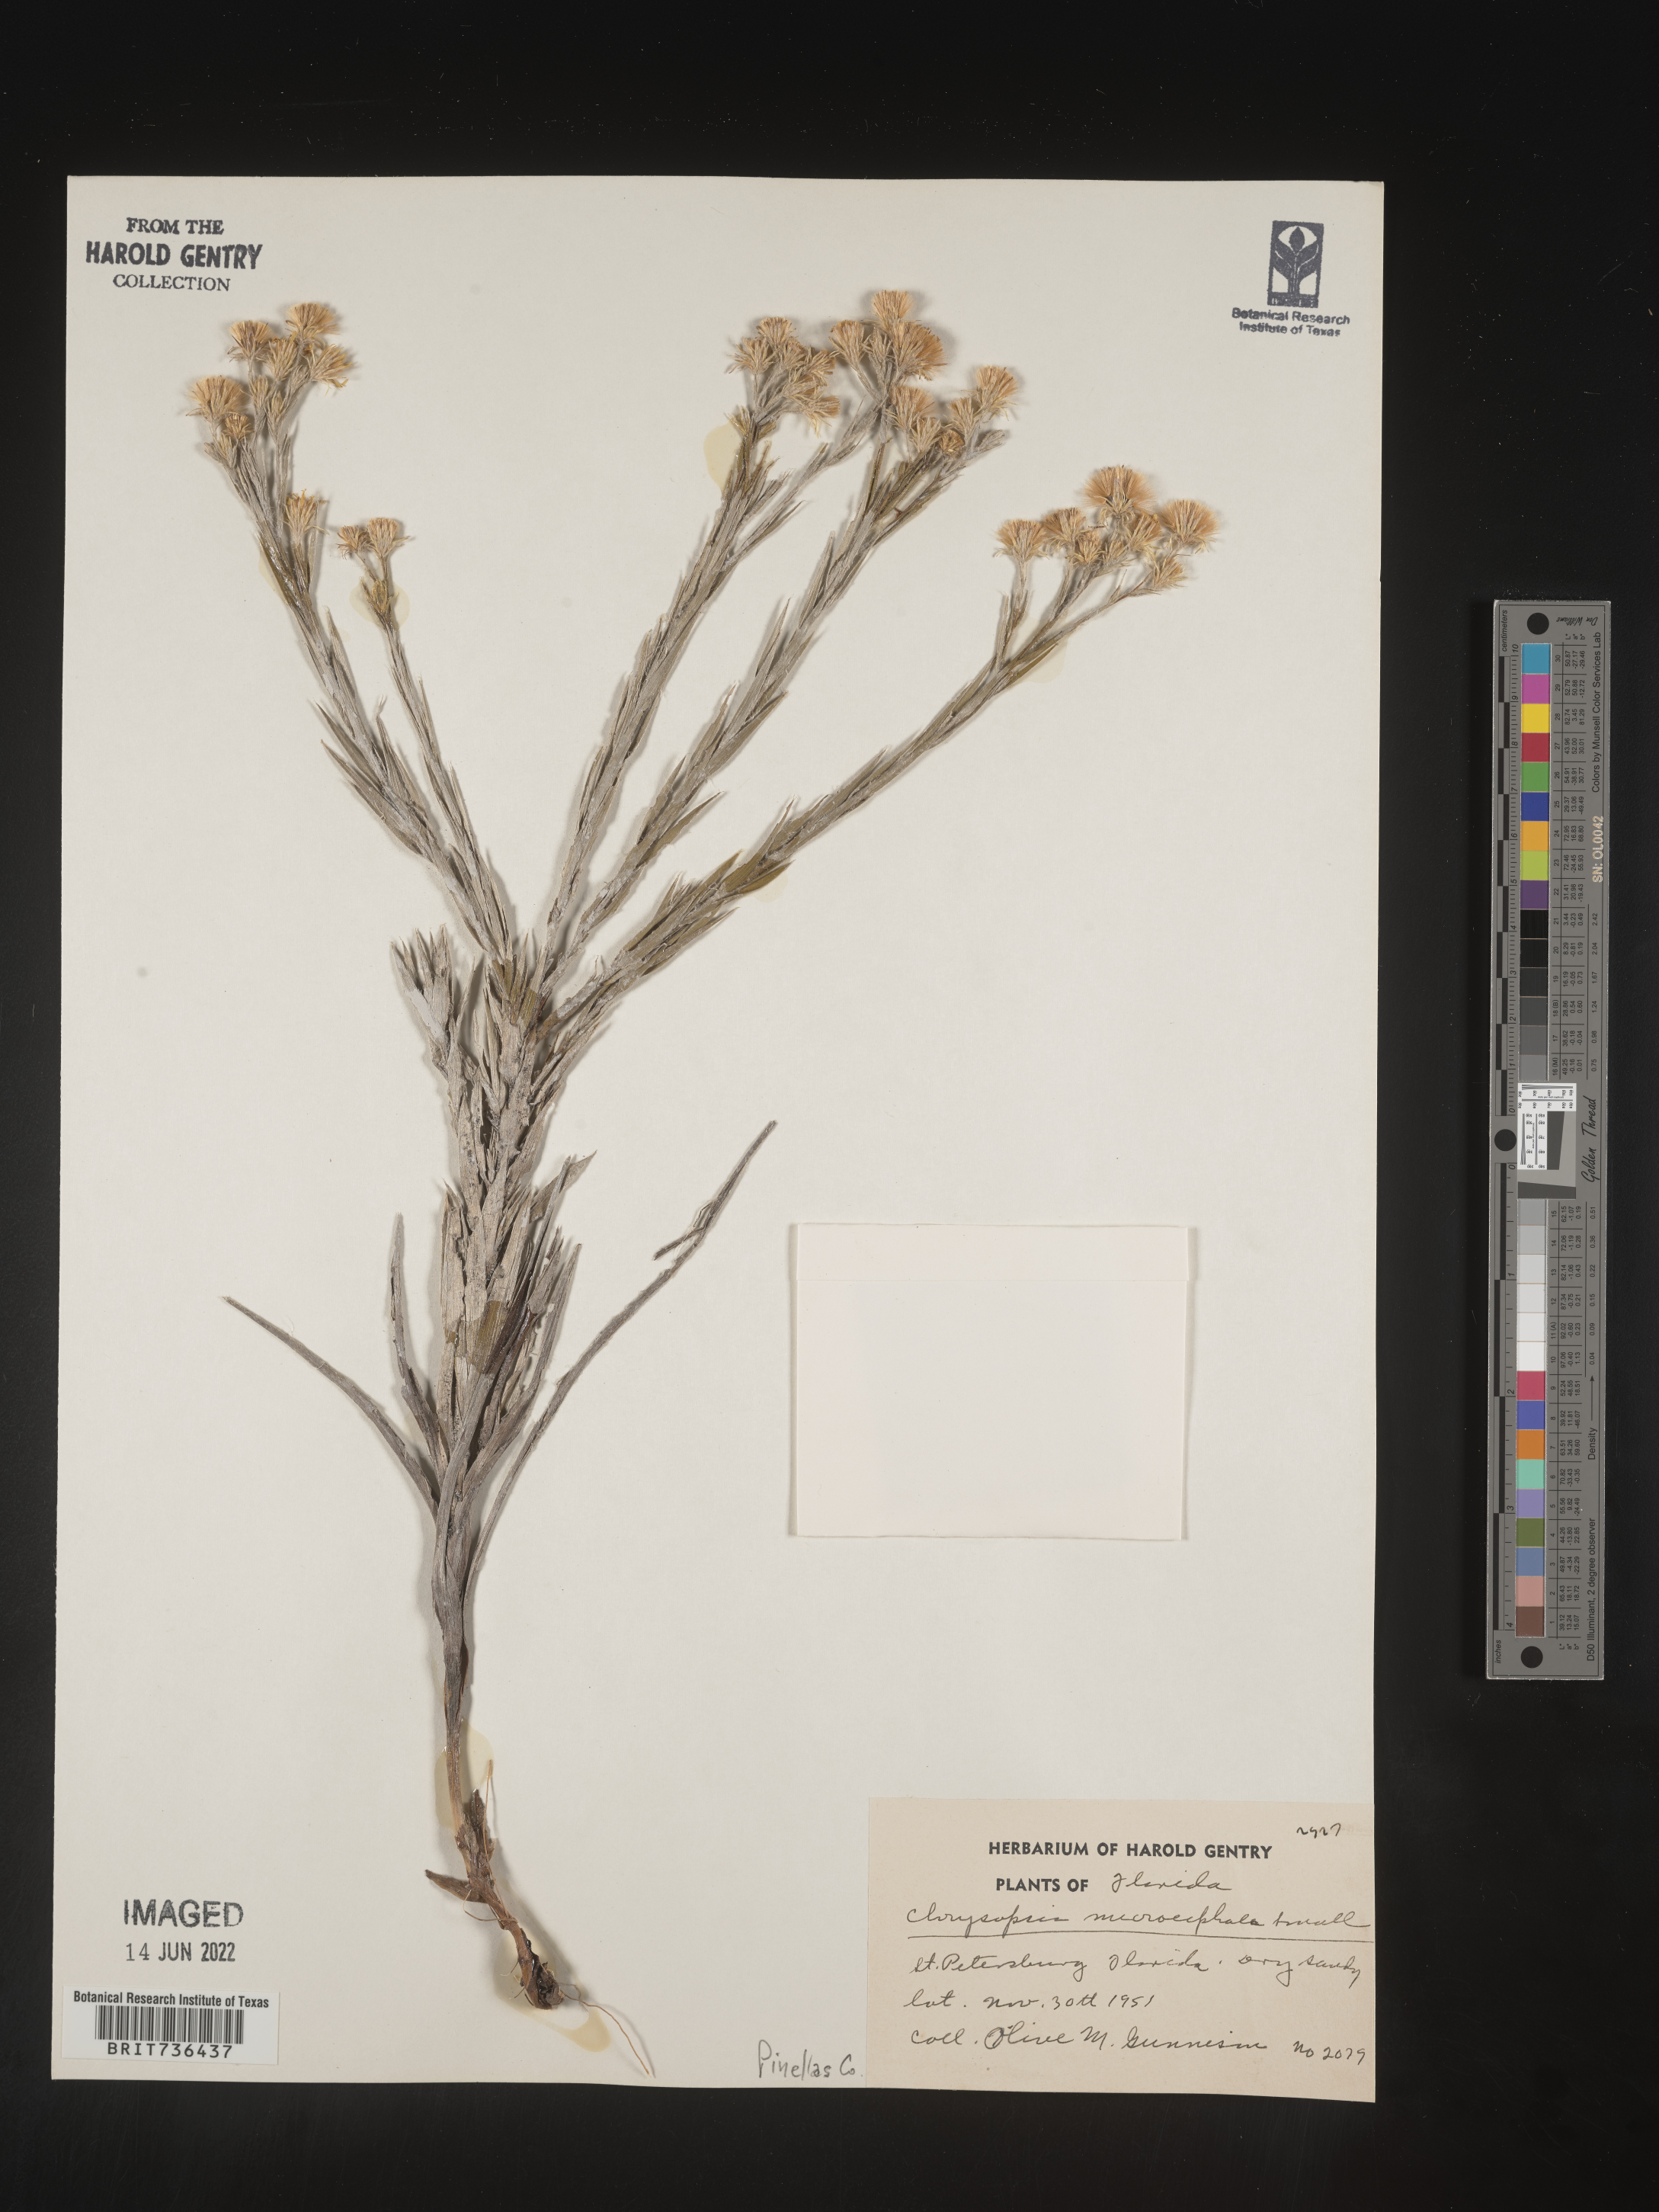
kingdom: Plantae
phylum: Tracheophyta
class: Magnoliopsida
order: Asterales
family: Asteraceae
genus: Pityopsis
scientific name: Pityopsis tracyi
